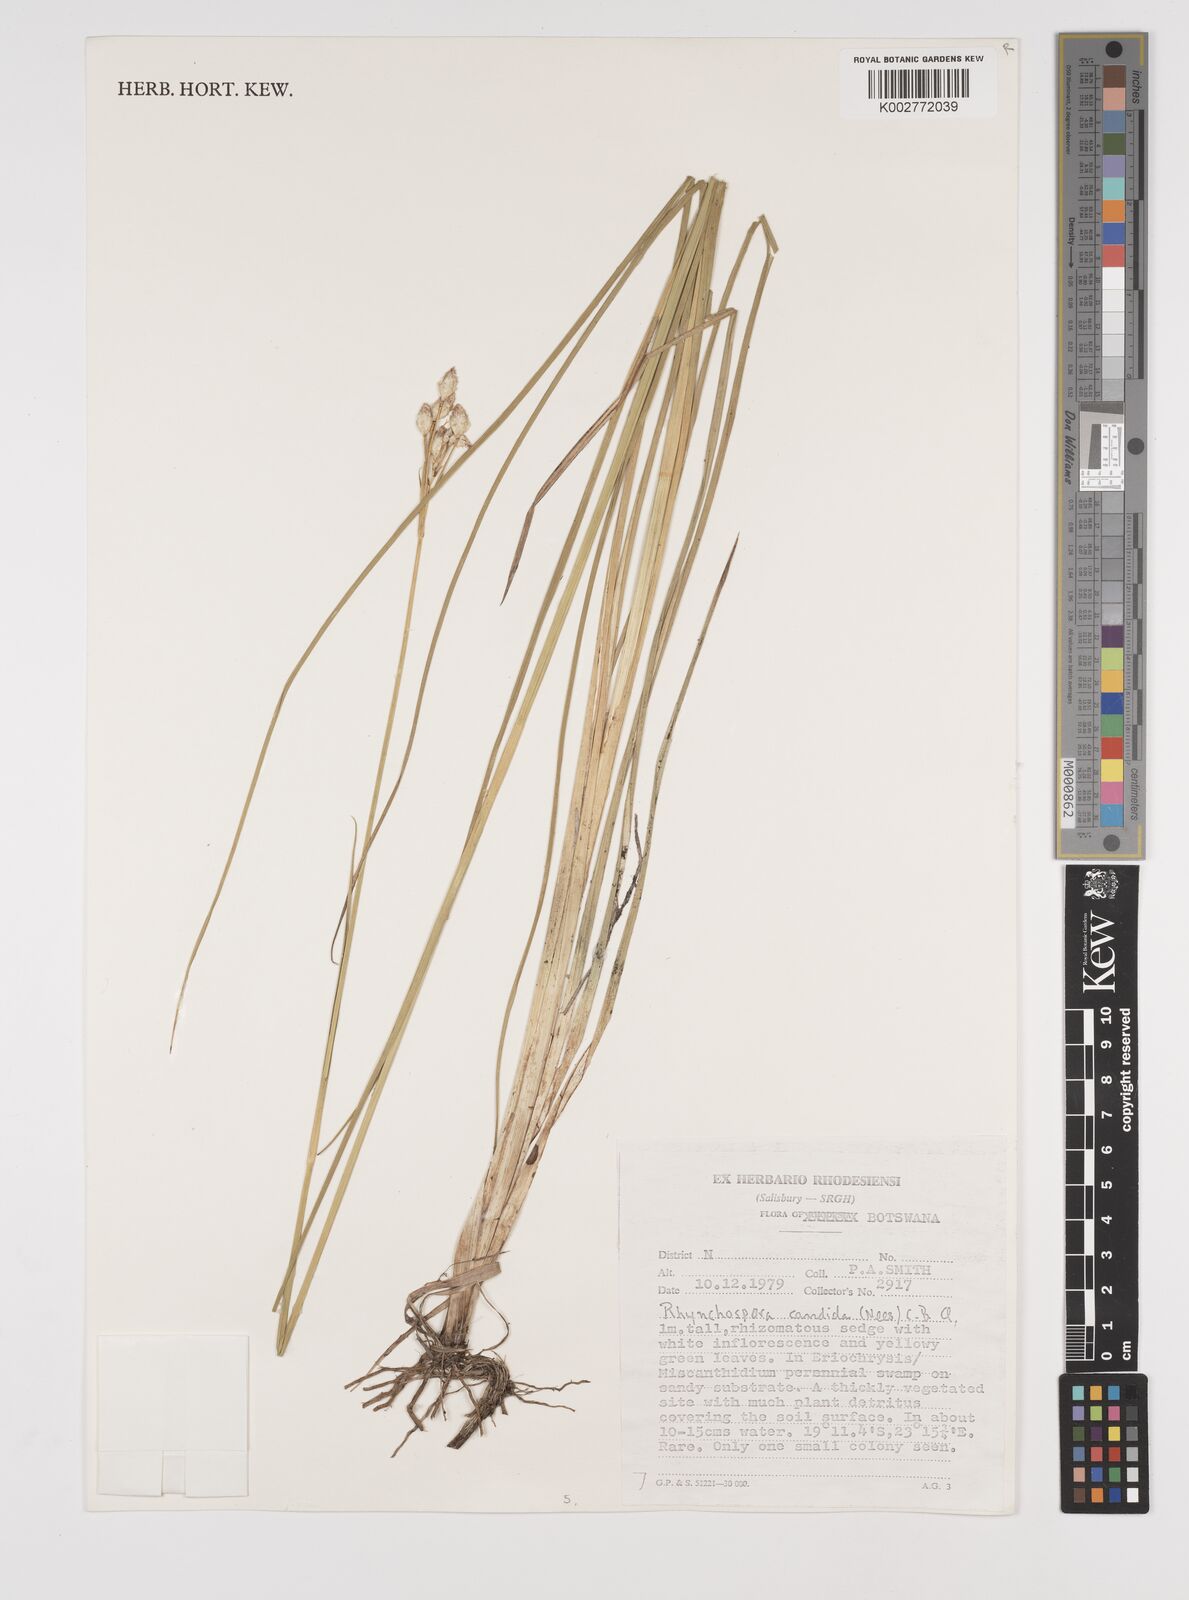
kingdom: Plantae
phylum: Tracheophyta
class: Liliopsida
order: Poales
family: Cyperaceae
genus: Rhynchospora
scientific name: Rhynchospora candida
